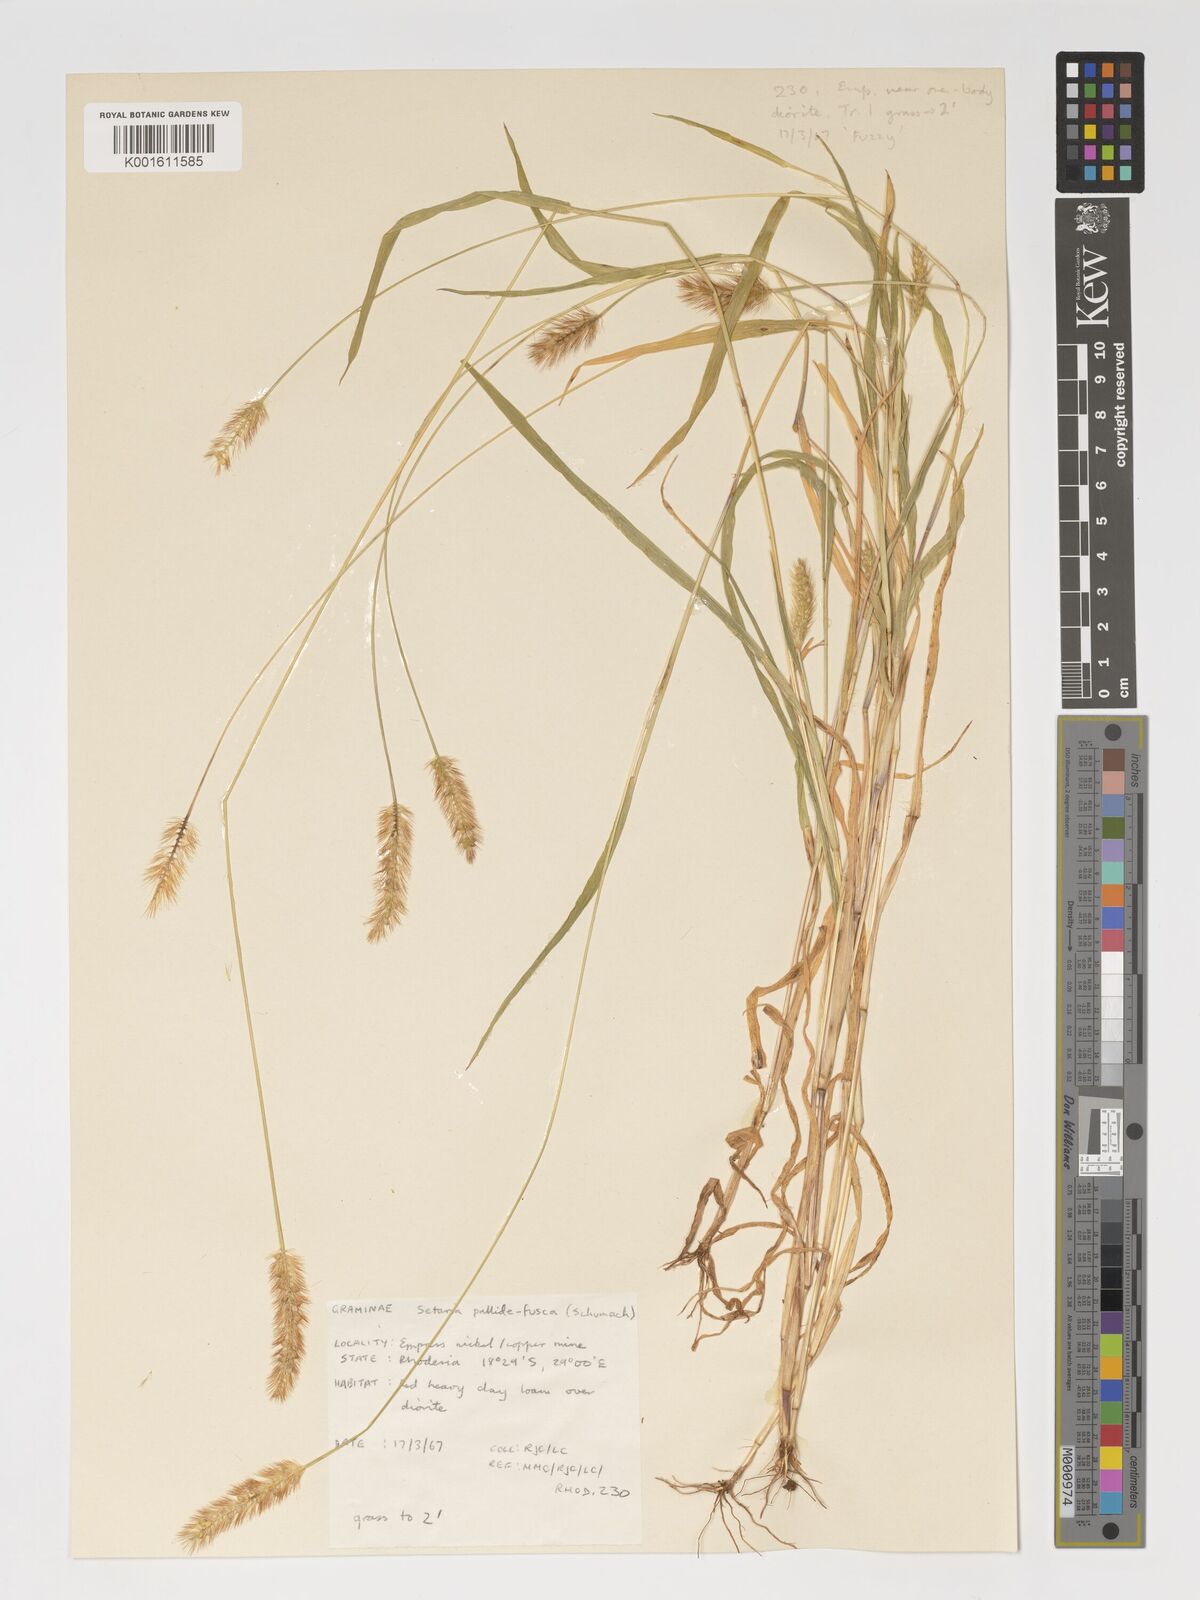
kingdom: Plantae
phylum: Tracheophyta
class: Liliopsida
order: Poales
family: Poaceae
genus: Setaria
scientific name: Setaria pumila
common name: Yellow bristle-grass
